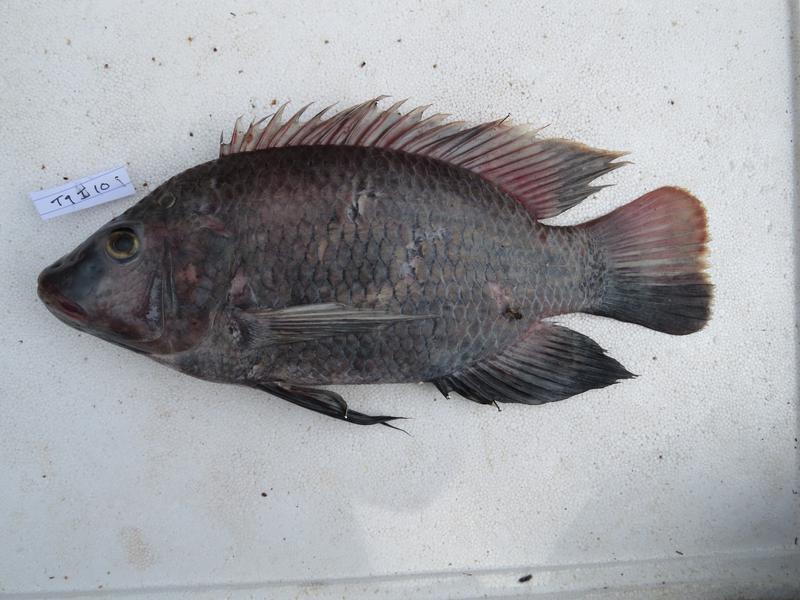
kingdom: Animalia
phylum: Chordata
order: Perciformes
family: Cichlidae
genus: Oreochromis
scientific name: Oreochromis urolepis
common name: Wami tilapia
